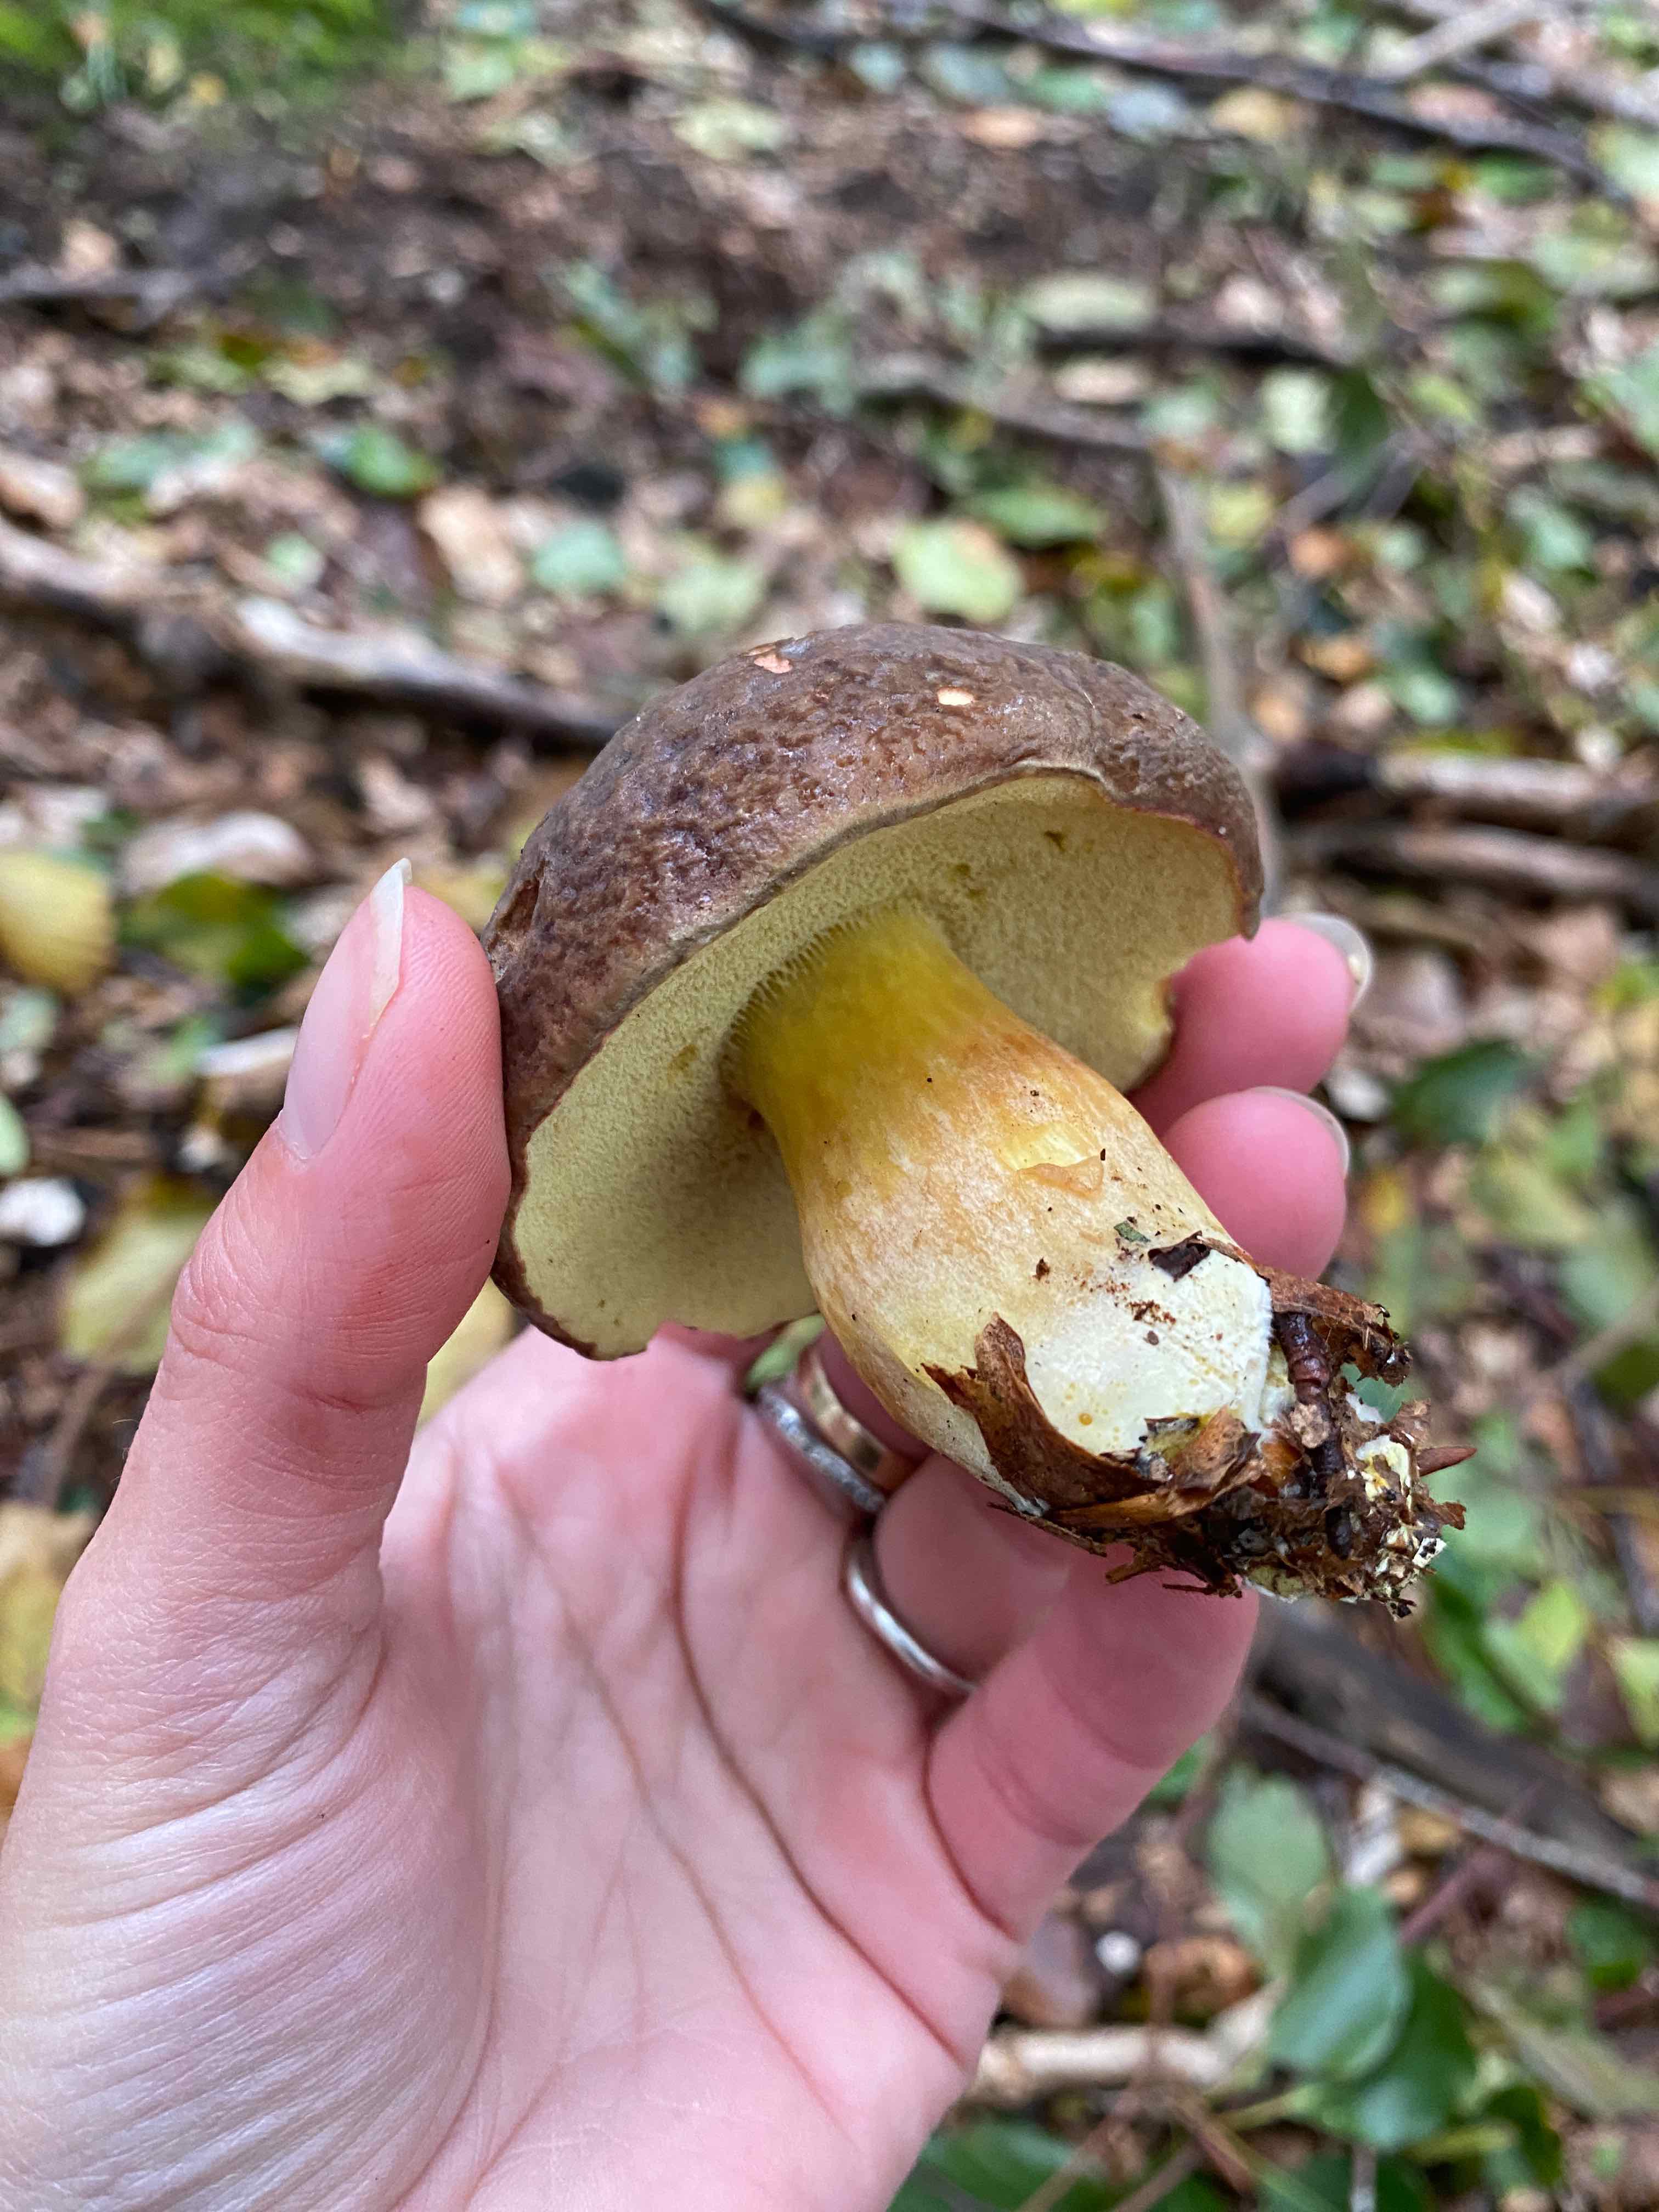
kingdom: Fungi
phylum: Basidiomycota
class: Agaricomycetes
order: Boletales
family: Boletaceae
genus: Xerocomellus
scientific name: Xerocomellus pruinatus
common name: dugget rørhat
